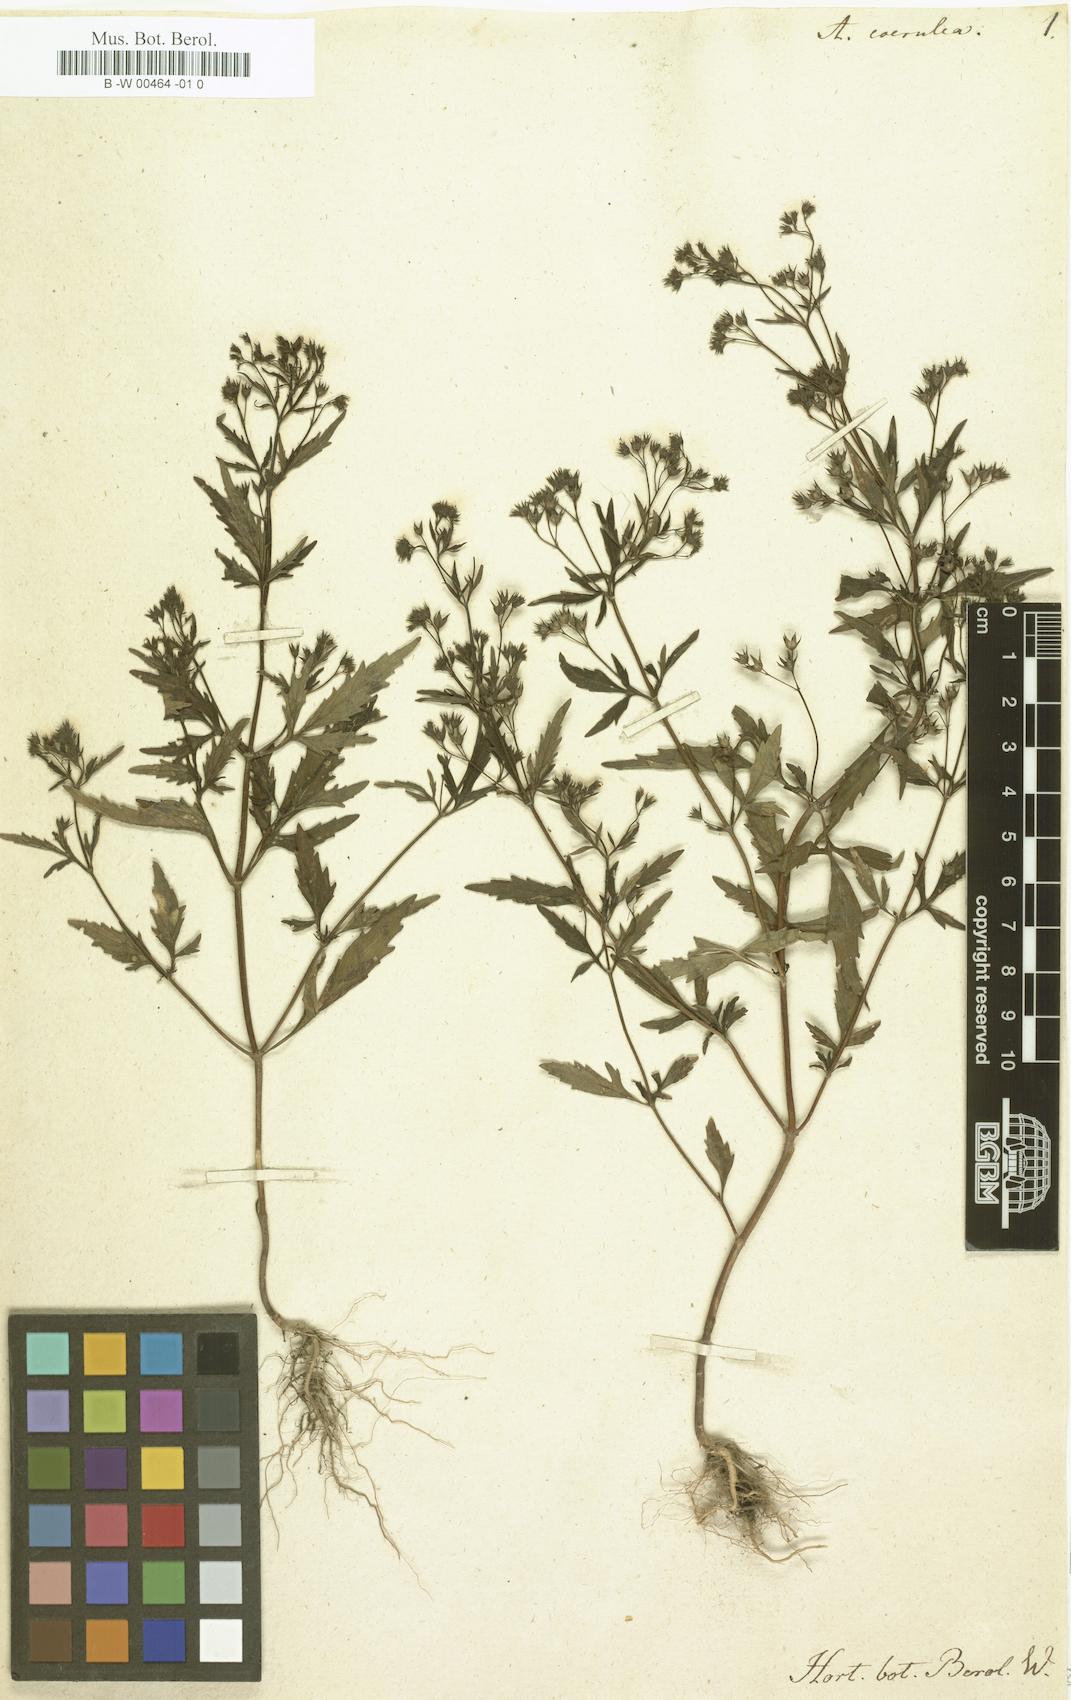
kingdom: Plantae
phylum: Tracheophyta
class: Magnoliopsida
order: Lamiales
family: Lamiaceae
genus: Amethystea
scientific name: Amethystea caerulea
